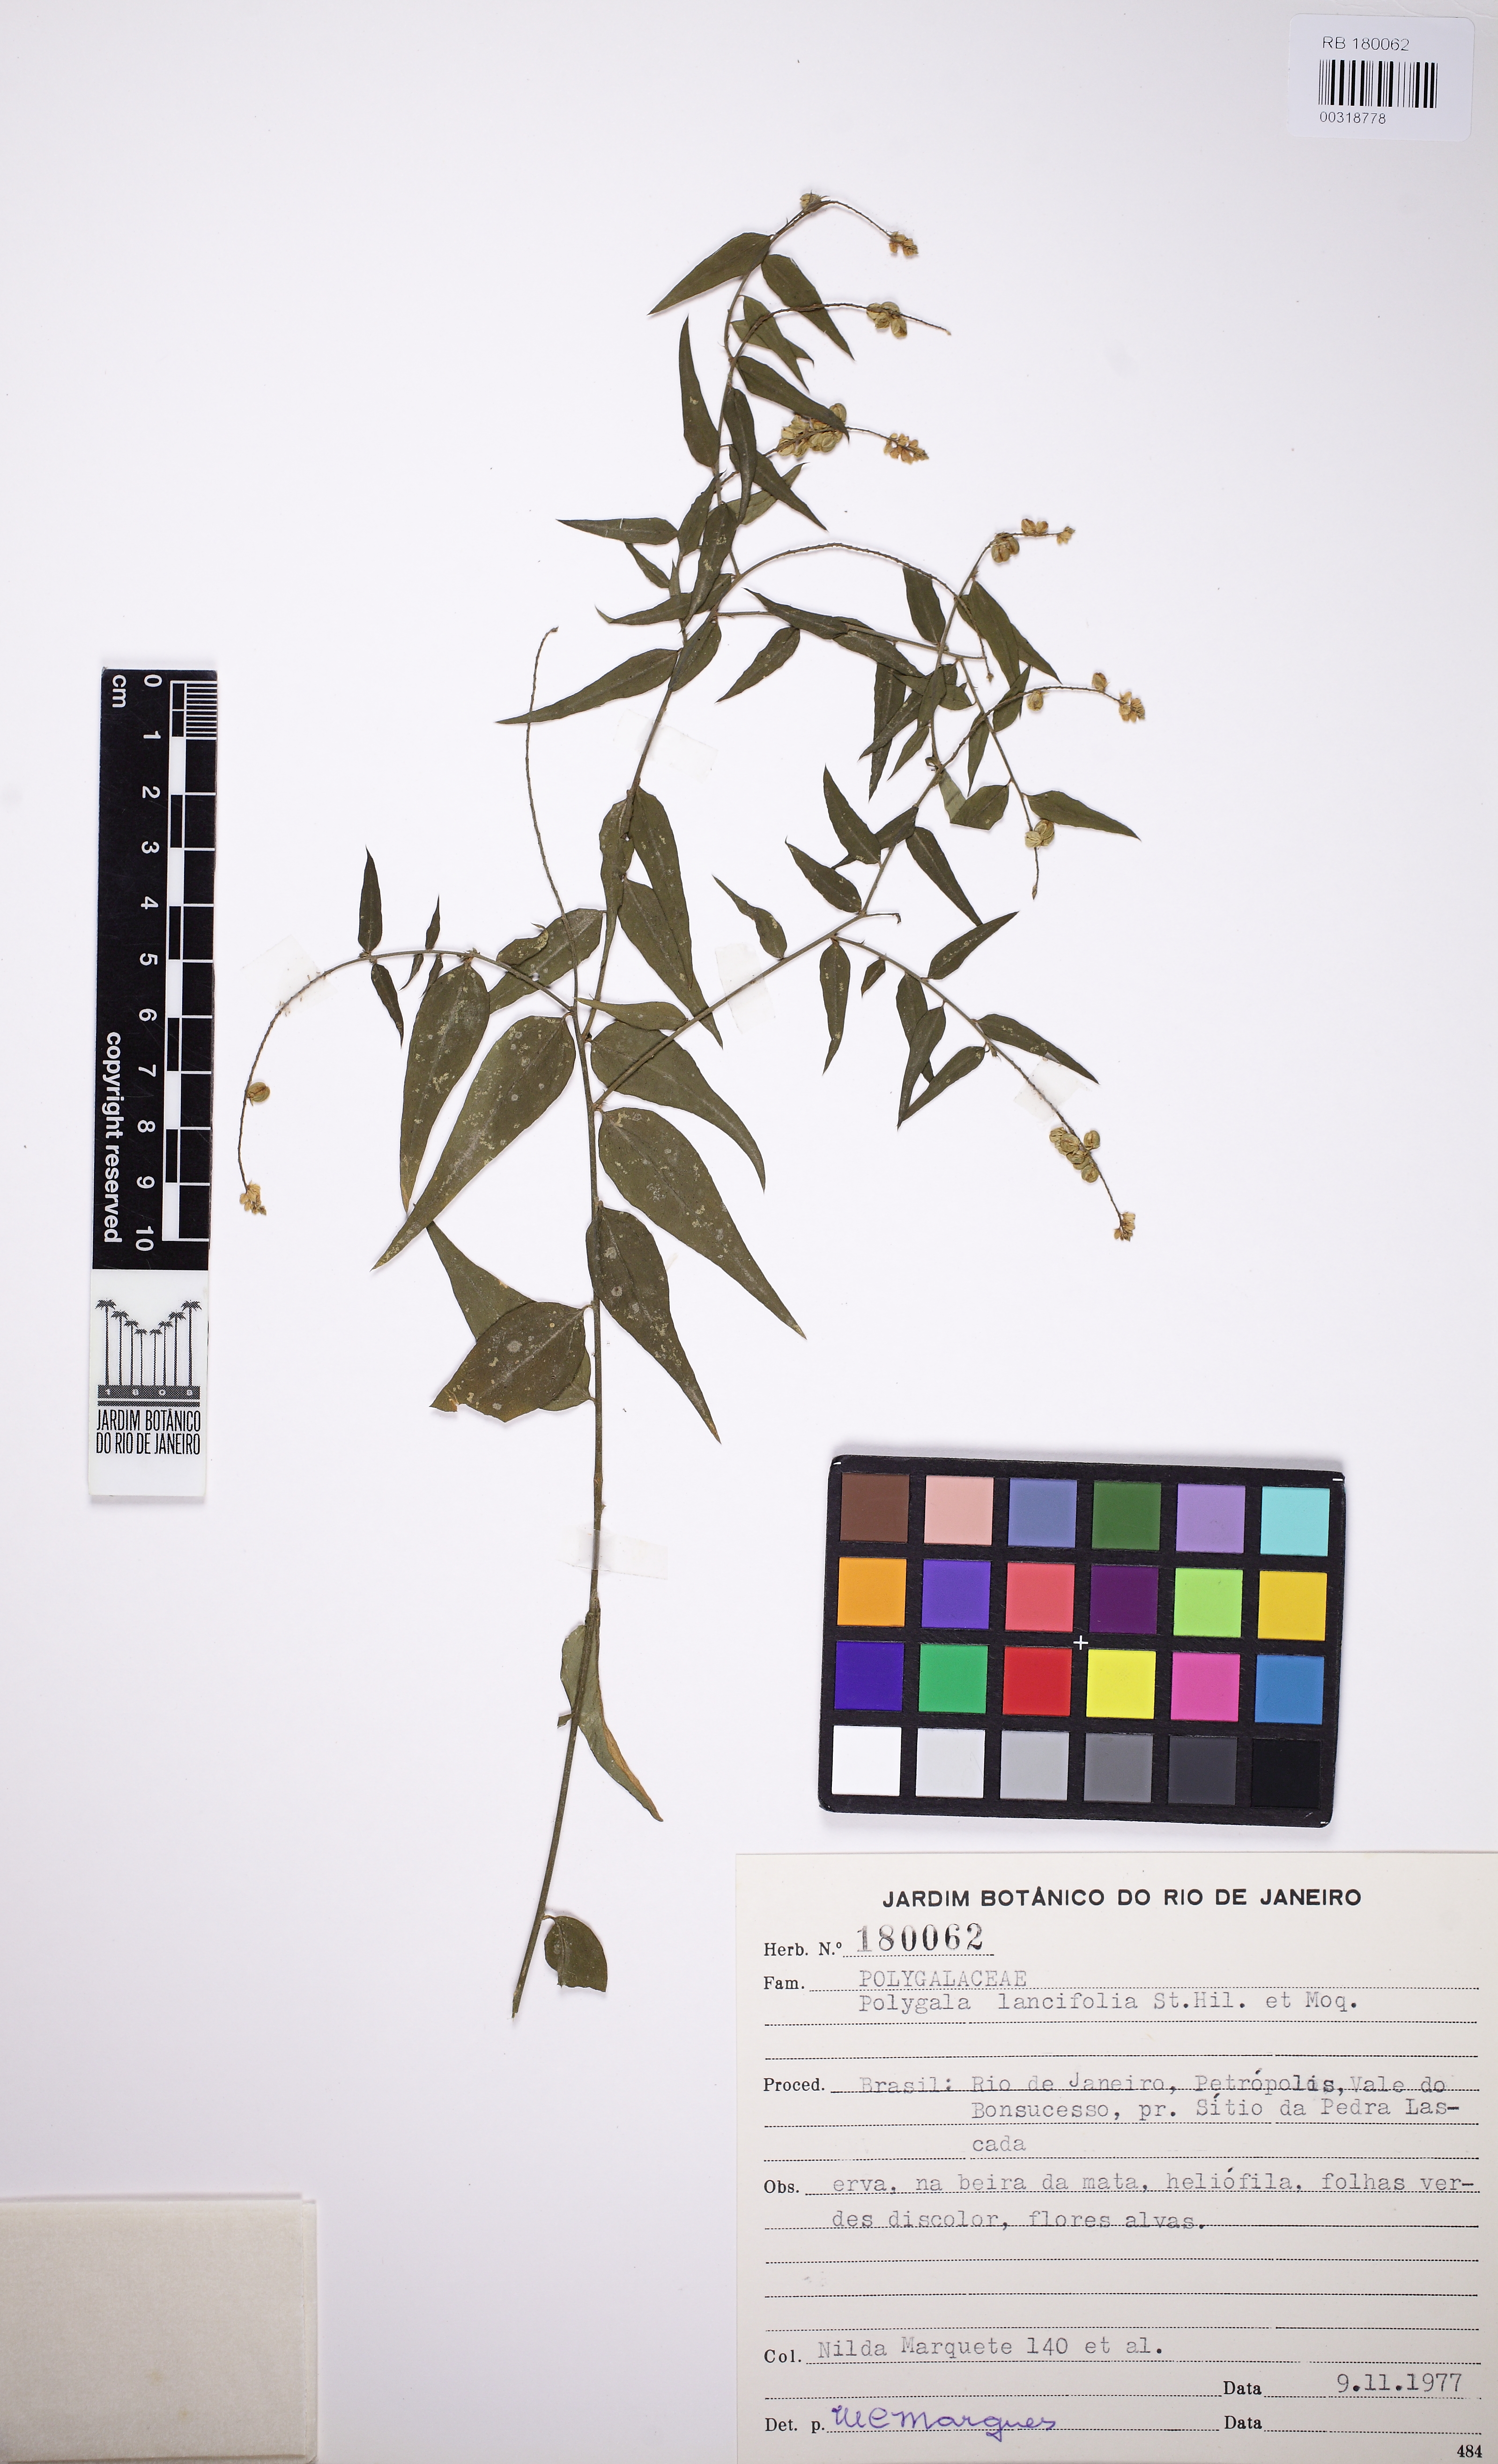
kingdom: Plantae
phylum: Tracheophyta
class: Magnoliopsida
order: Fabales
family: Polygalaceae
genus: Polygala
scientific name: Polygala lancifolia
